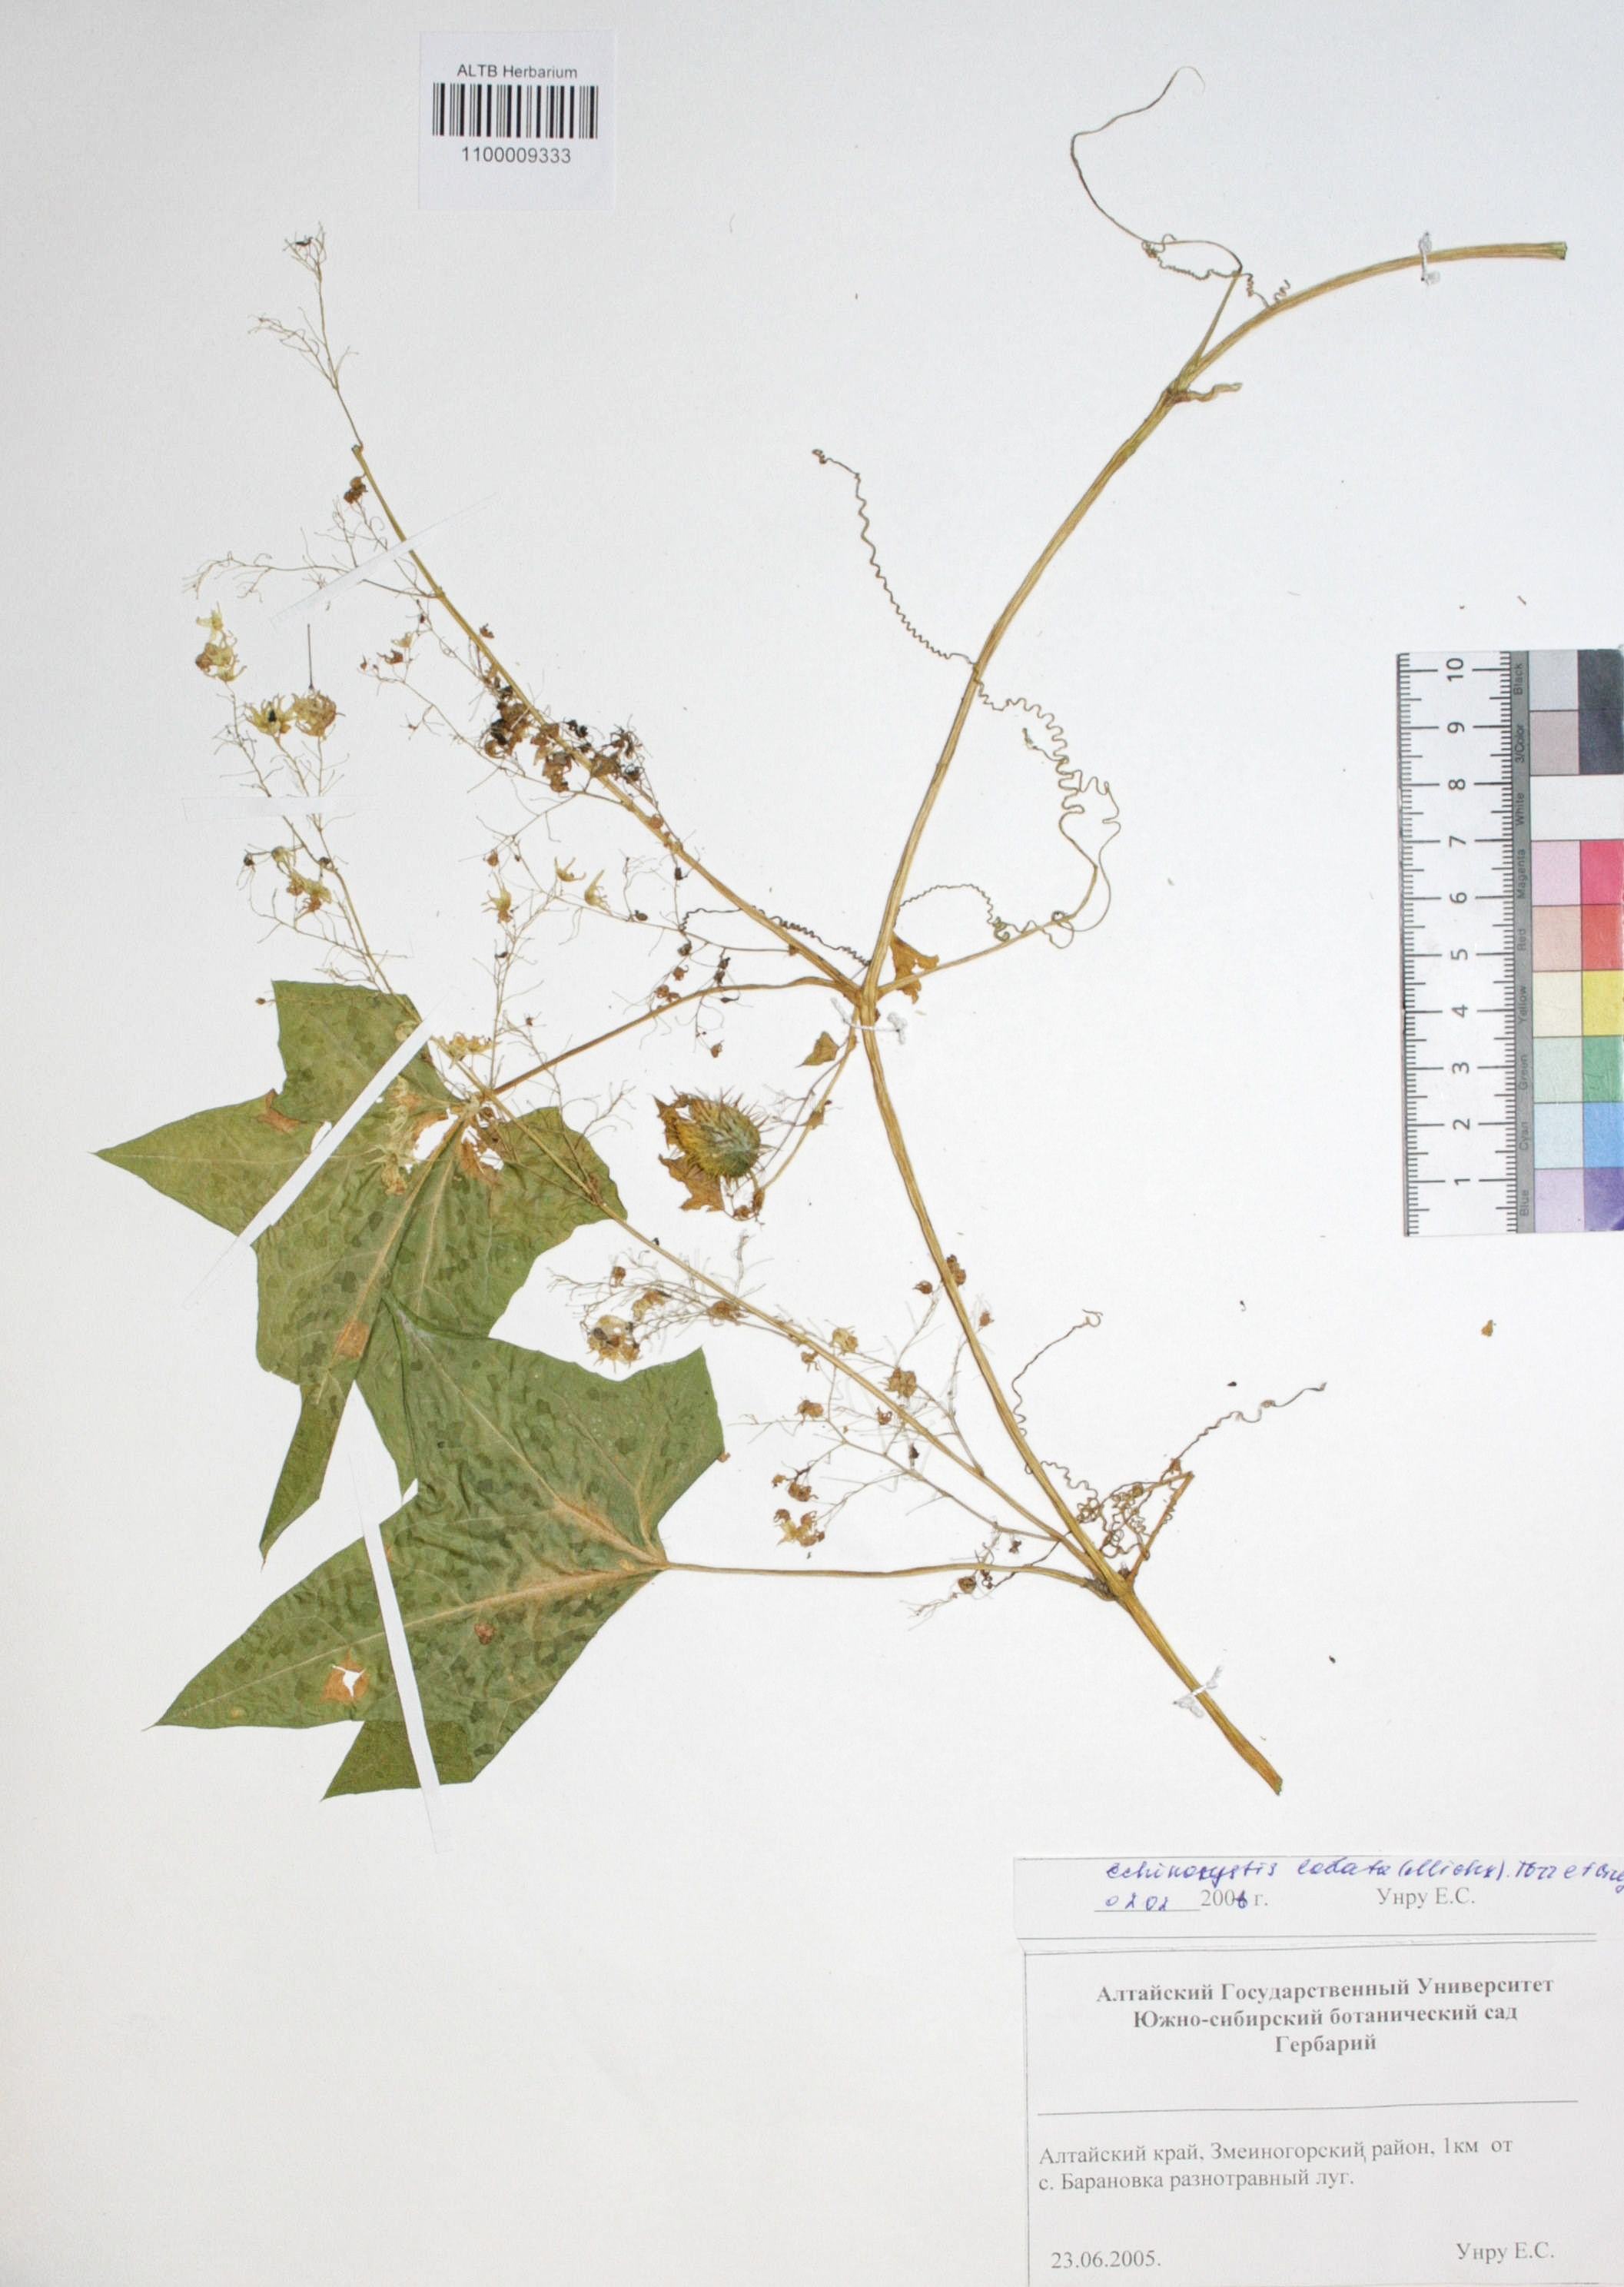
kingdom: Plantae
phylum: Tracheophyta
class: Magnoliopsida
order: Cucurbitales
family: Cucurbitaceae
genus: Echinocystis
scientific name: Echinocystis lobata
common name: Wild cucumber
